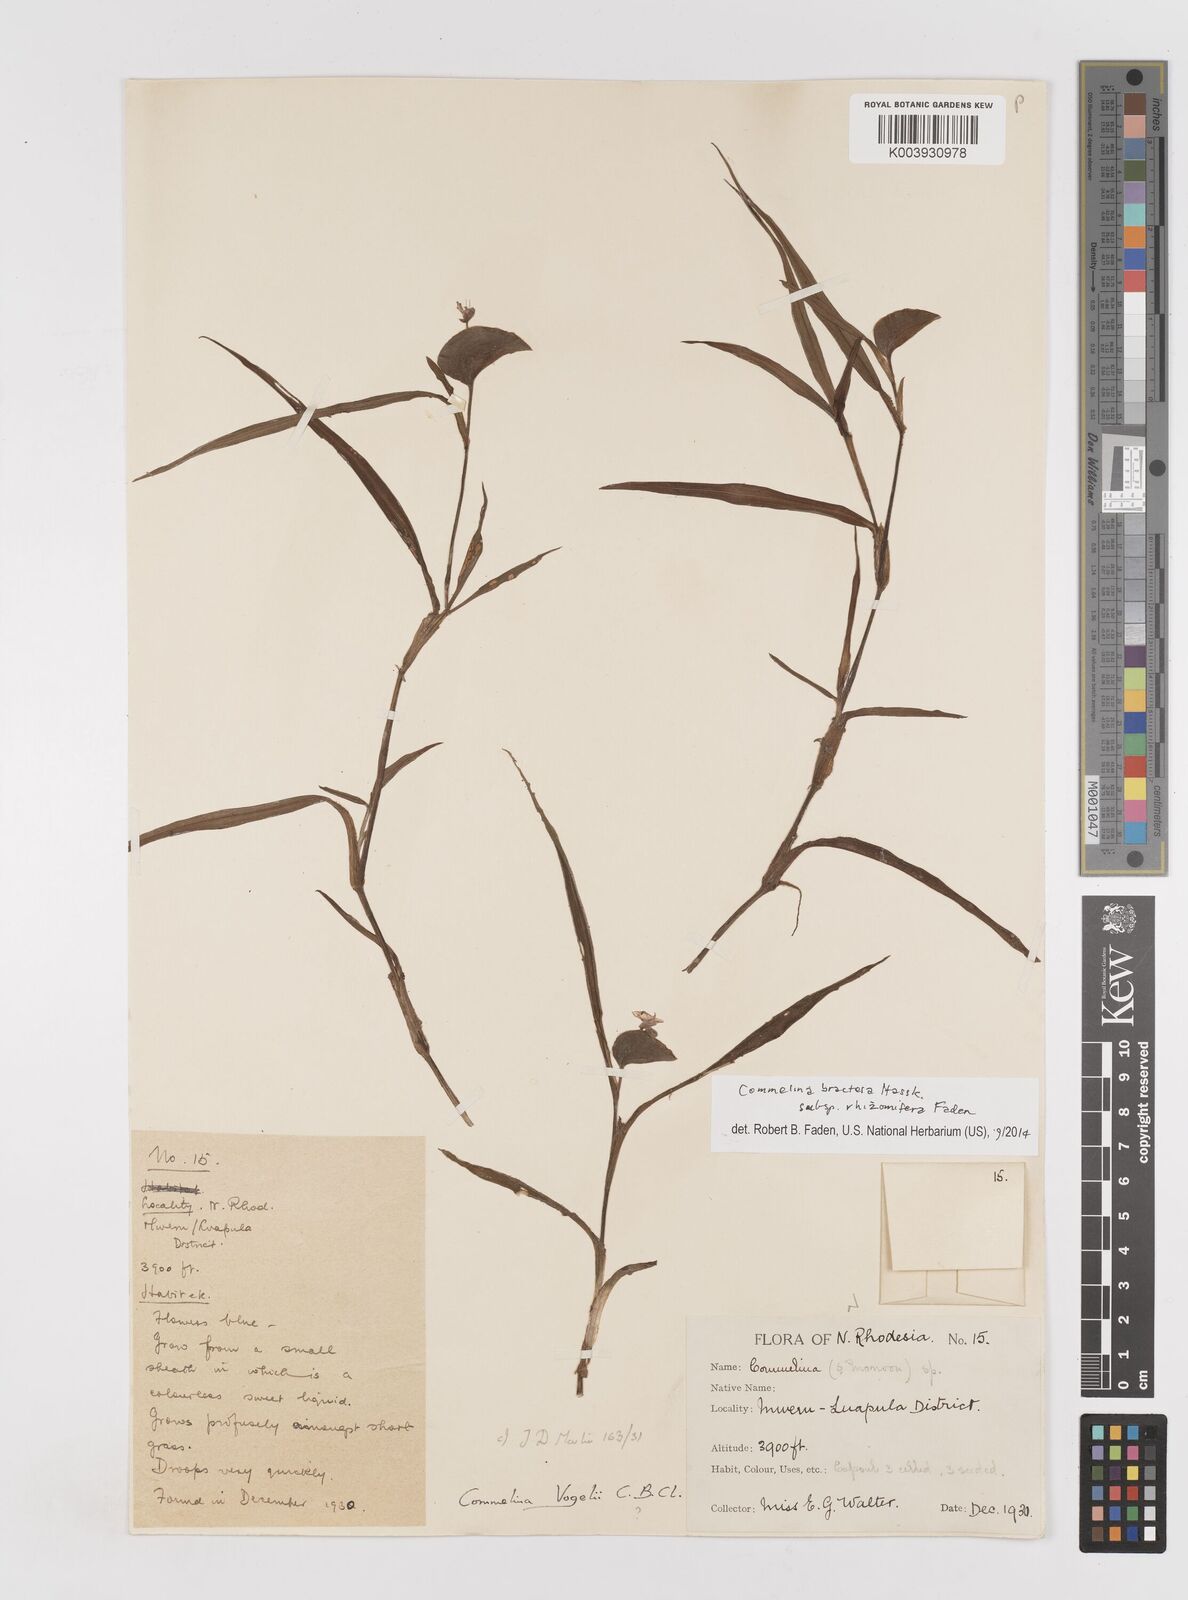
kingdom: Plantae
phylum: Tracheophyta
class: Liliopsida
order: Commelinales
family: Commelinaceae
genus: Commelina
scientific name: Commelina bracteosa
